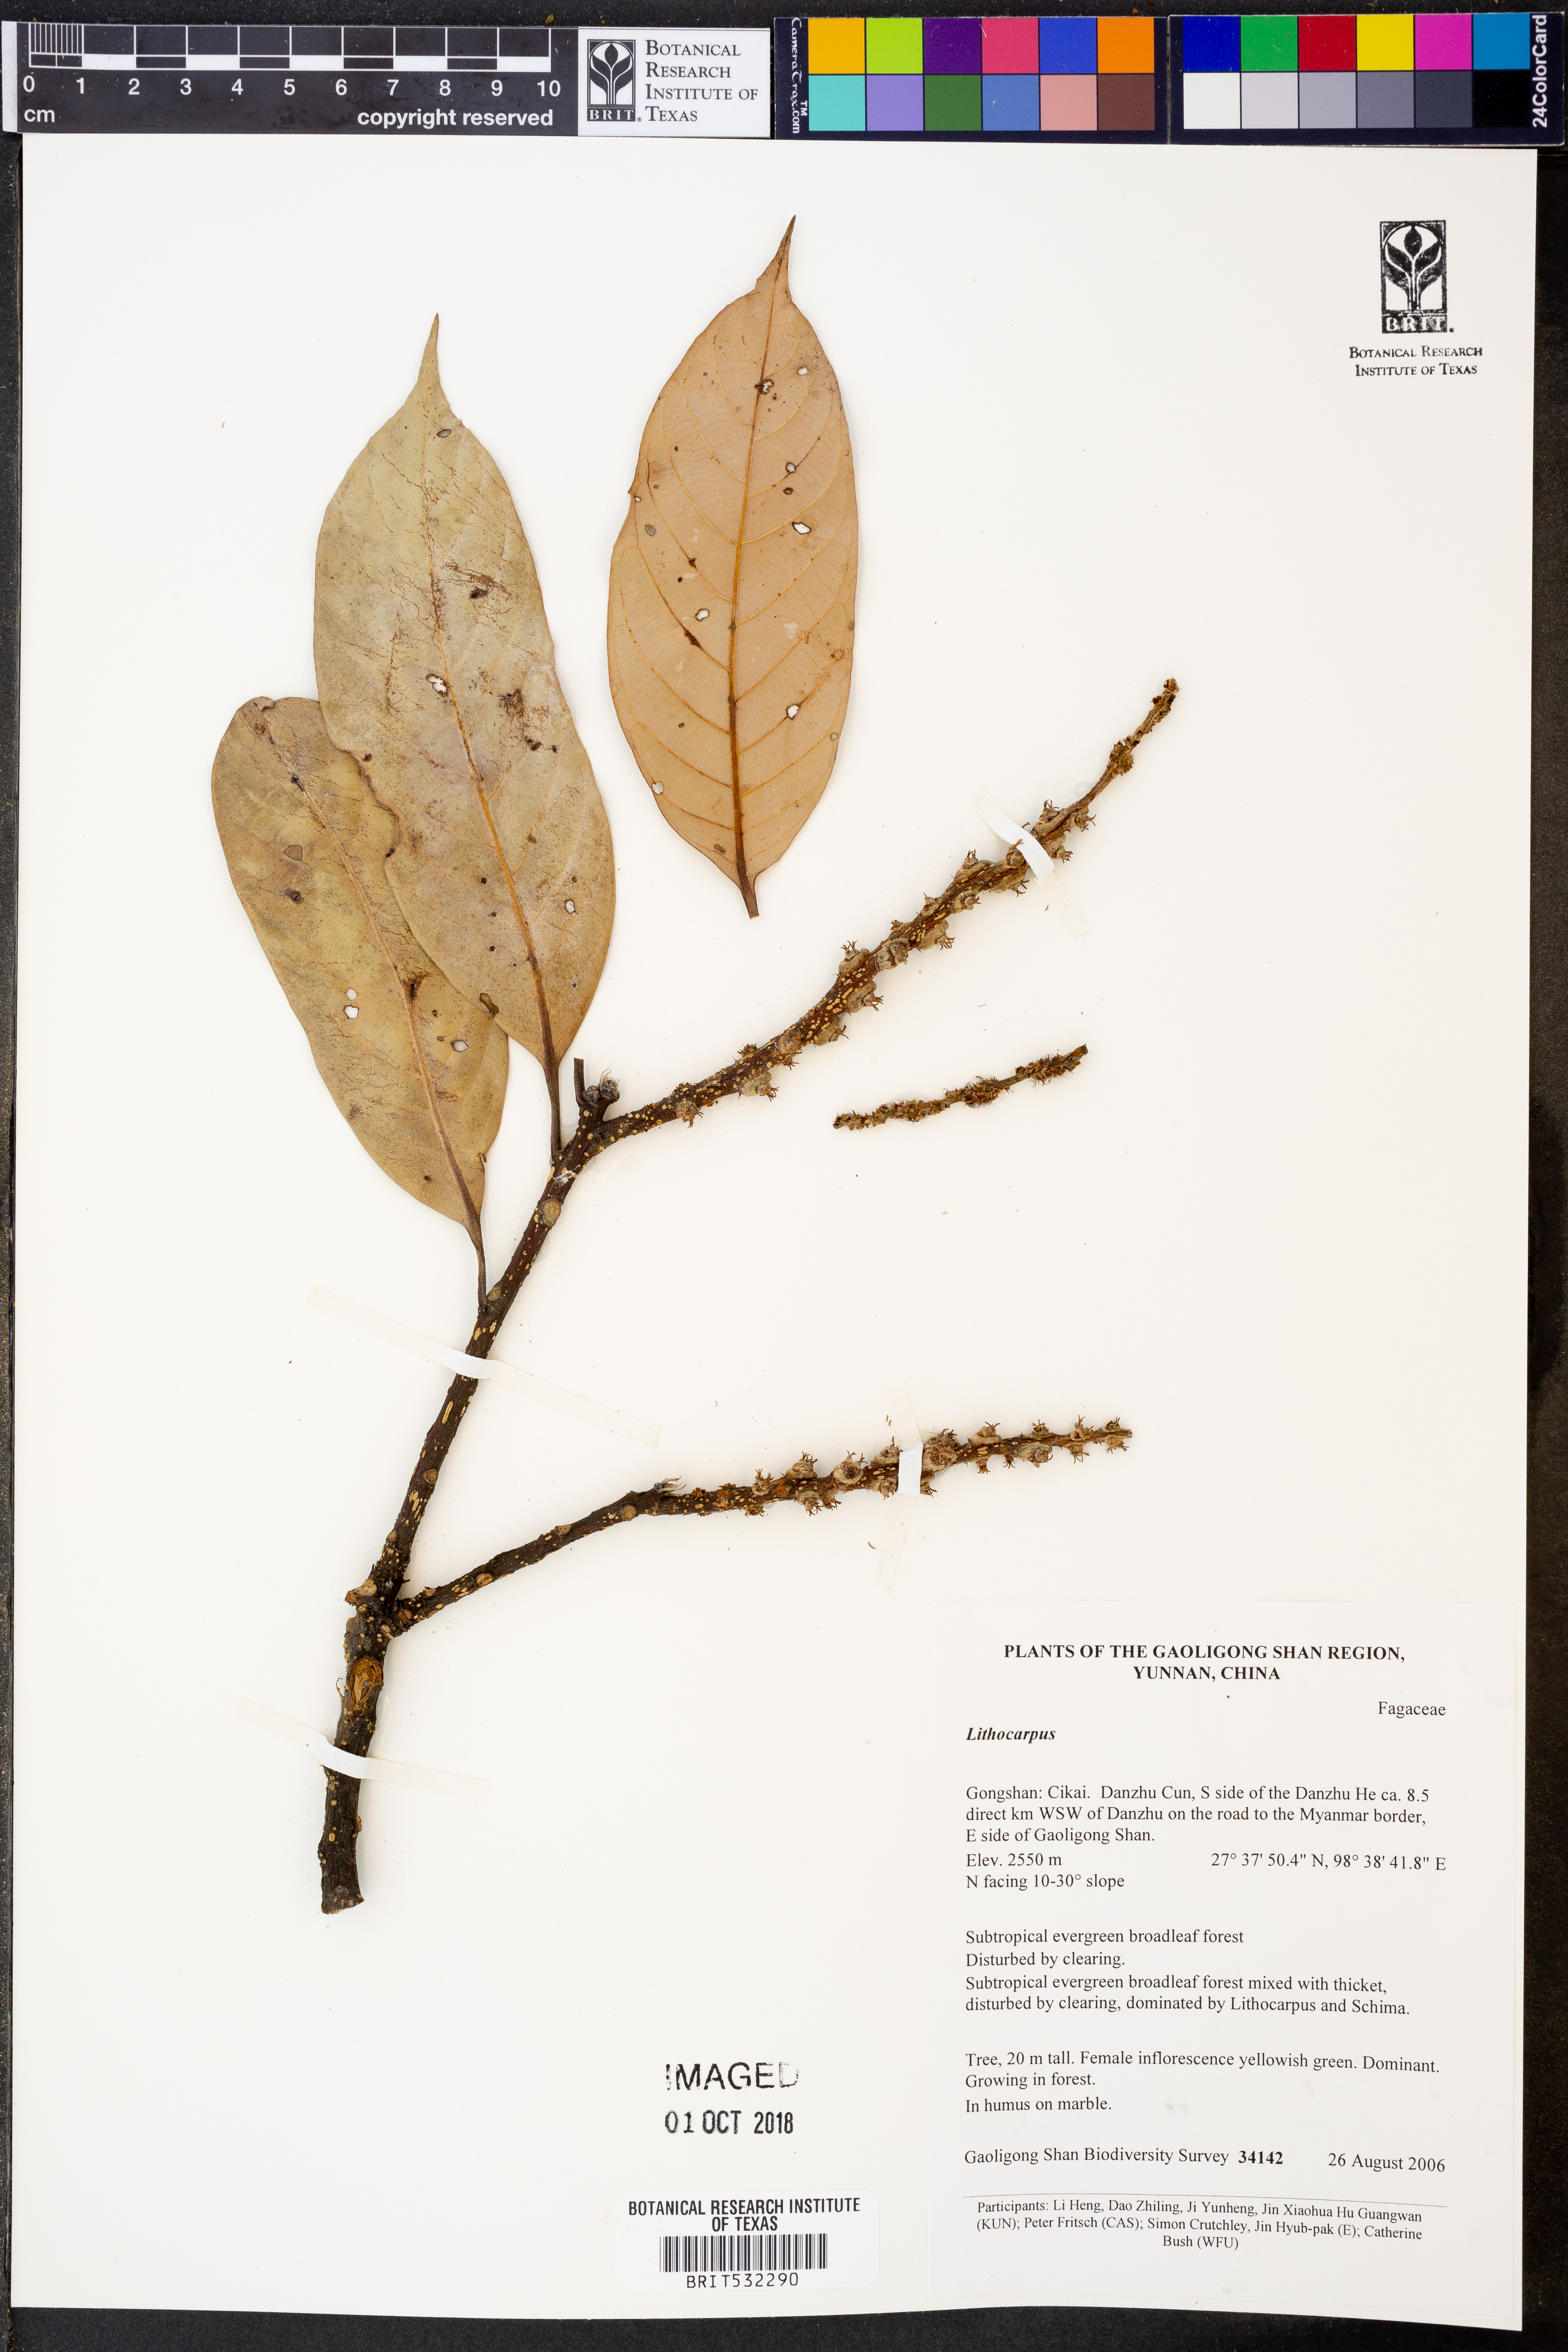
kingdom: Plantae
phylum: Tracheophyta
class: Magnoliopsida
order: Fagales
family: Fagaceae
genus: Lithocarpus
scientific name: Lithocarpus
